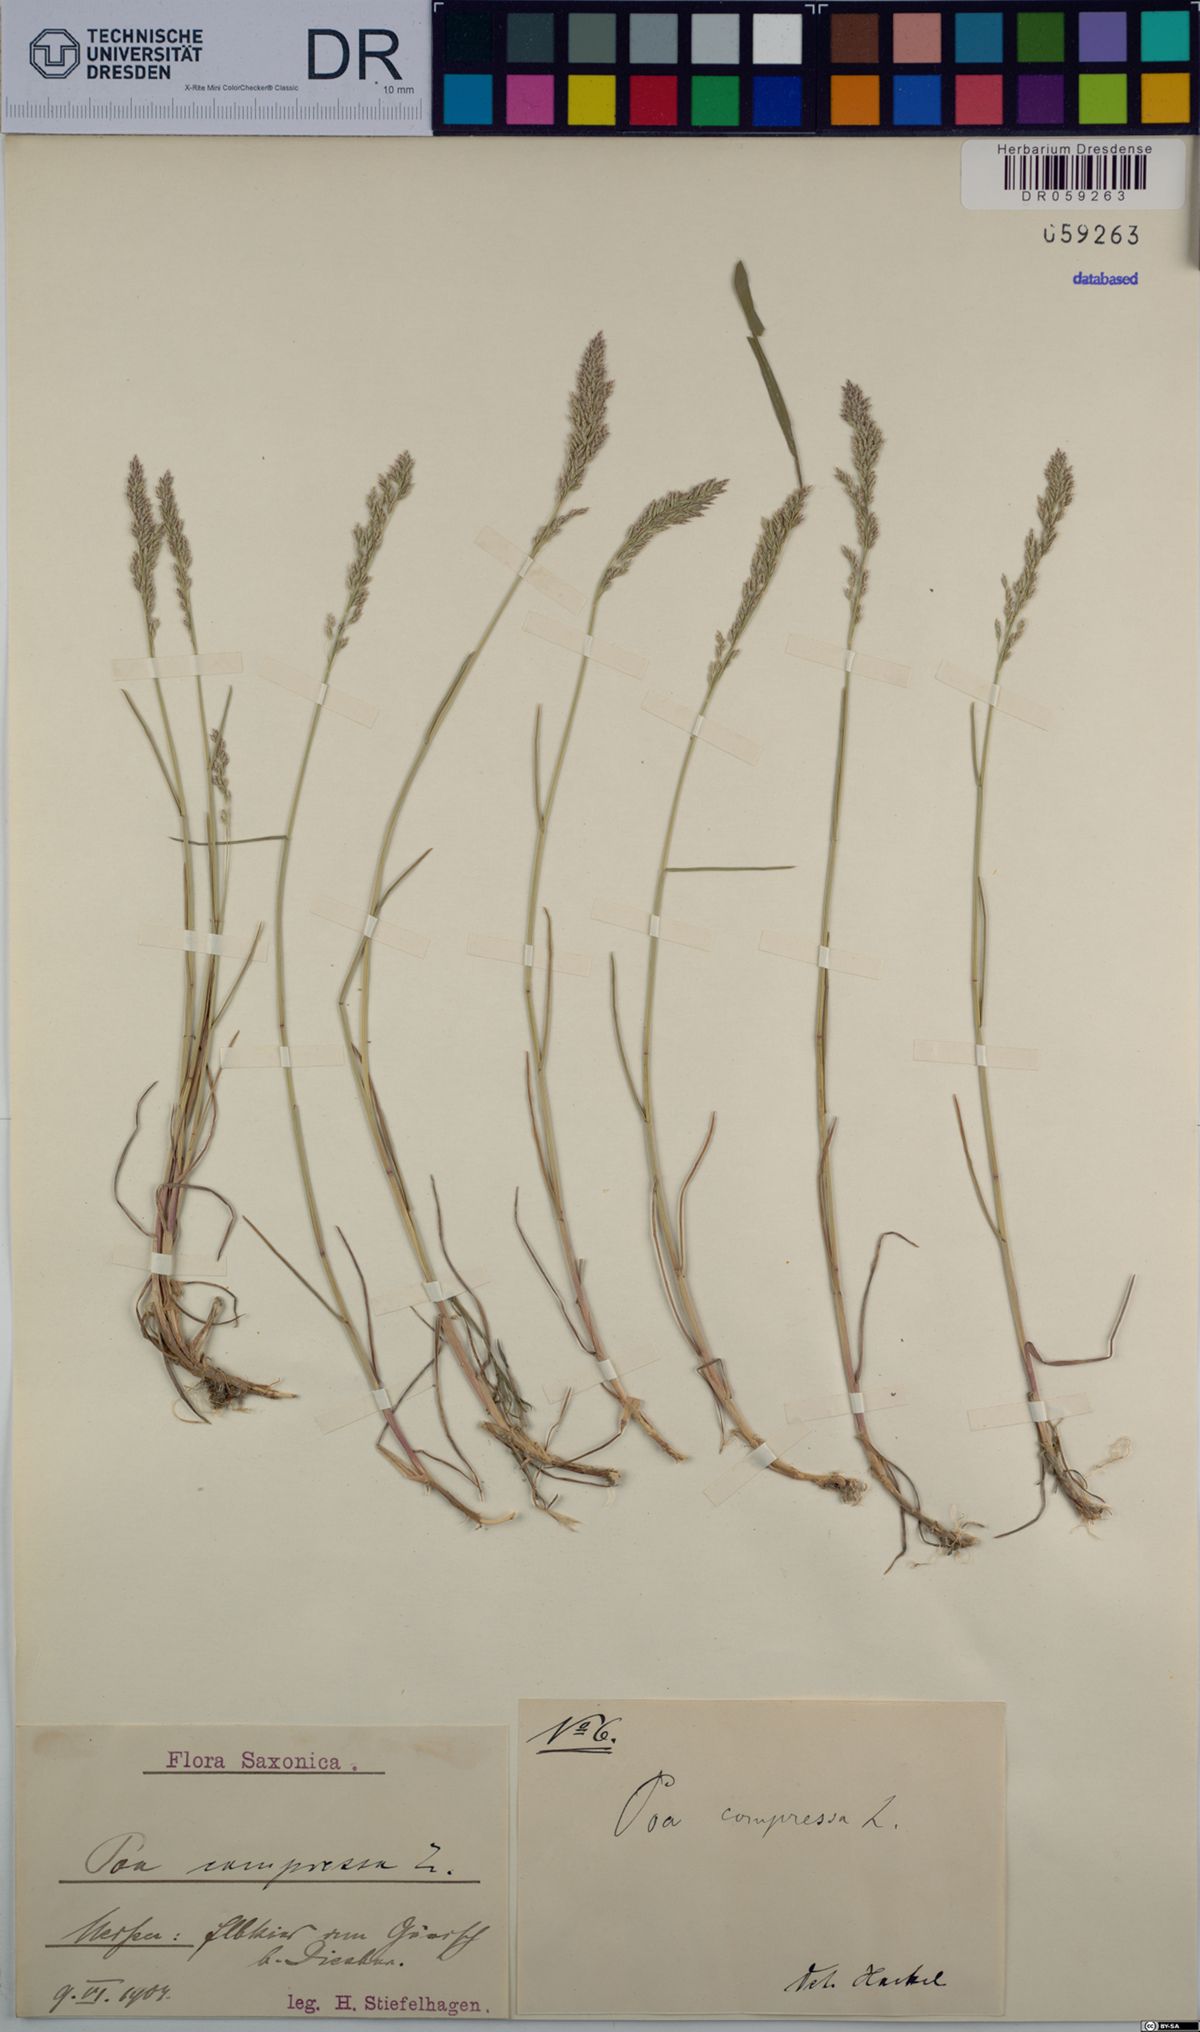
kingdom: Plantae
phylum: Tracheophyta
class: Liliopsida
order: Poales
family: Poaceae
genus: Poa
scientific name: Poa compressa
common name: Canada bluegrass
